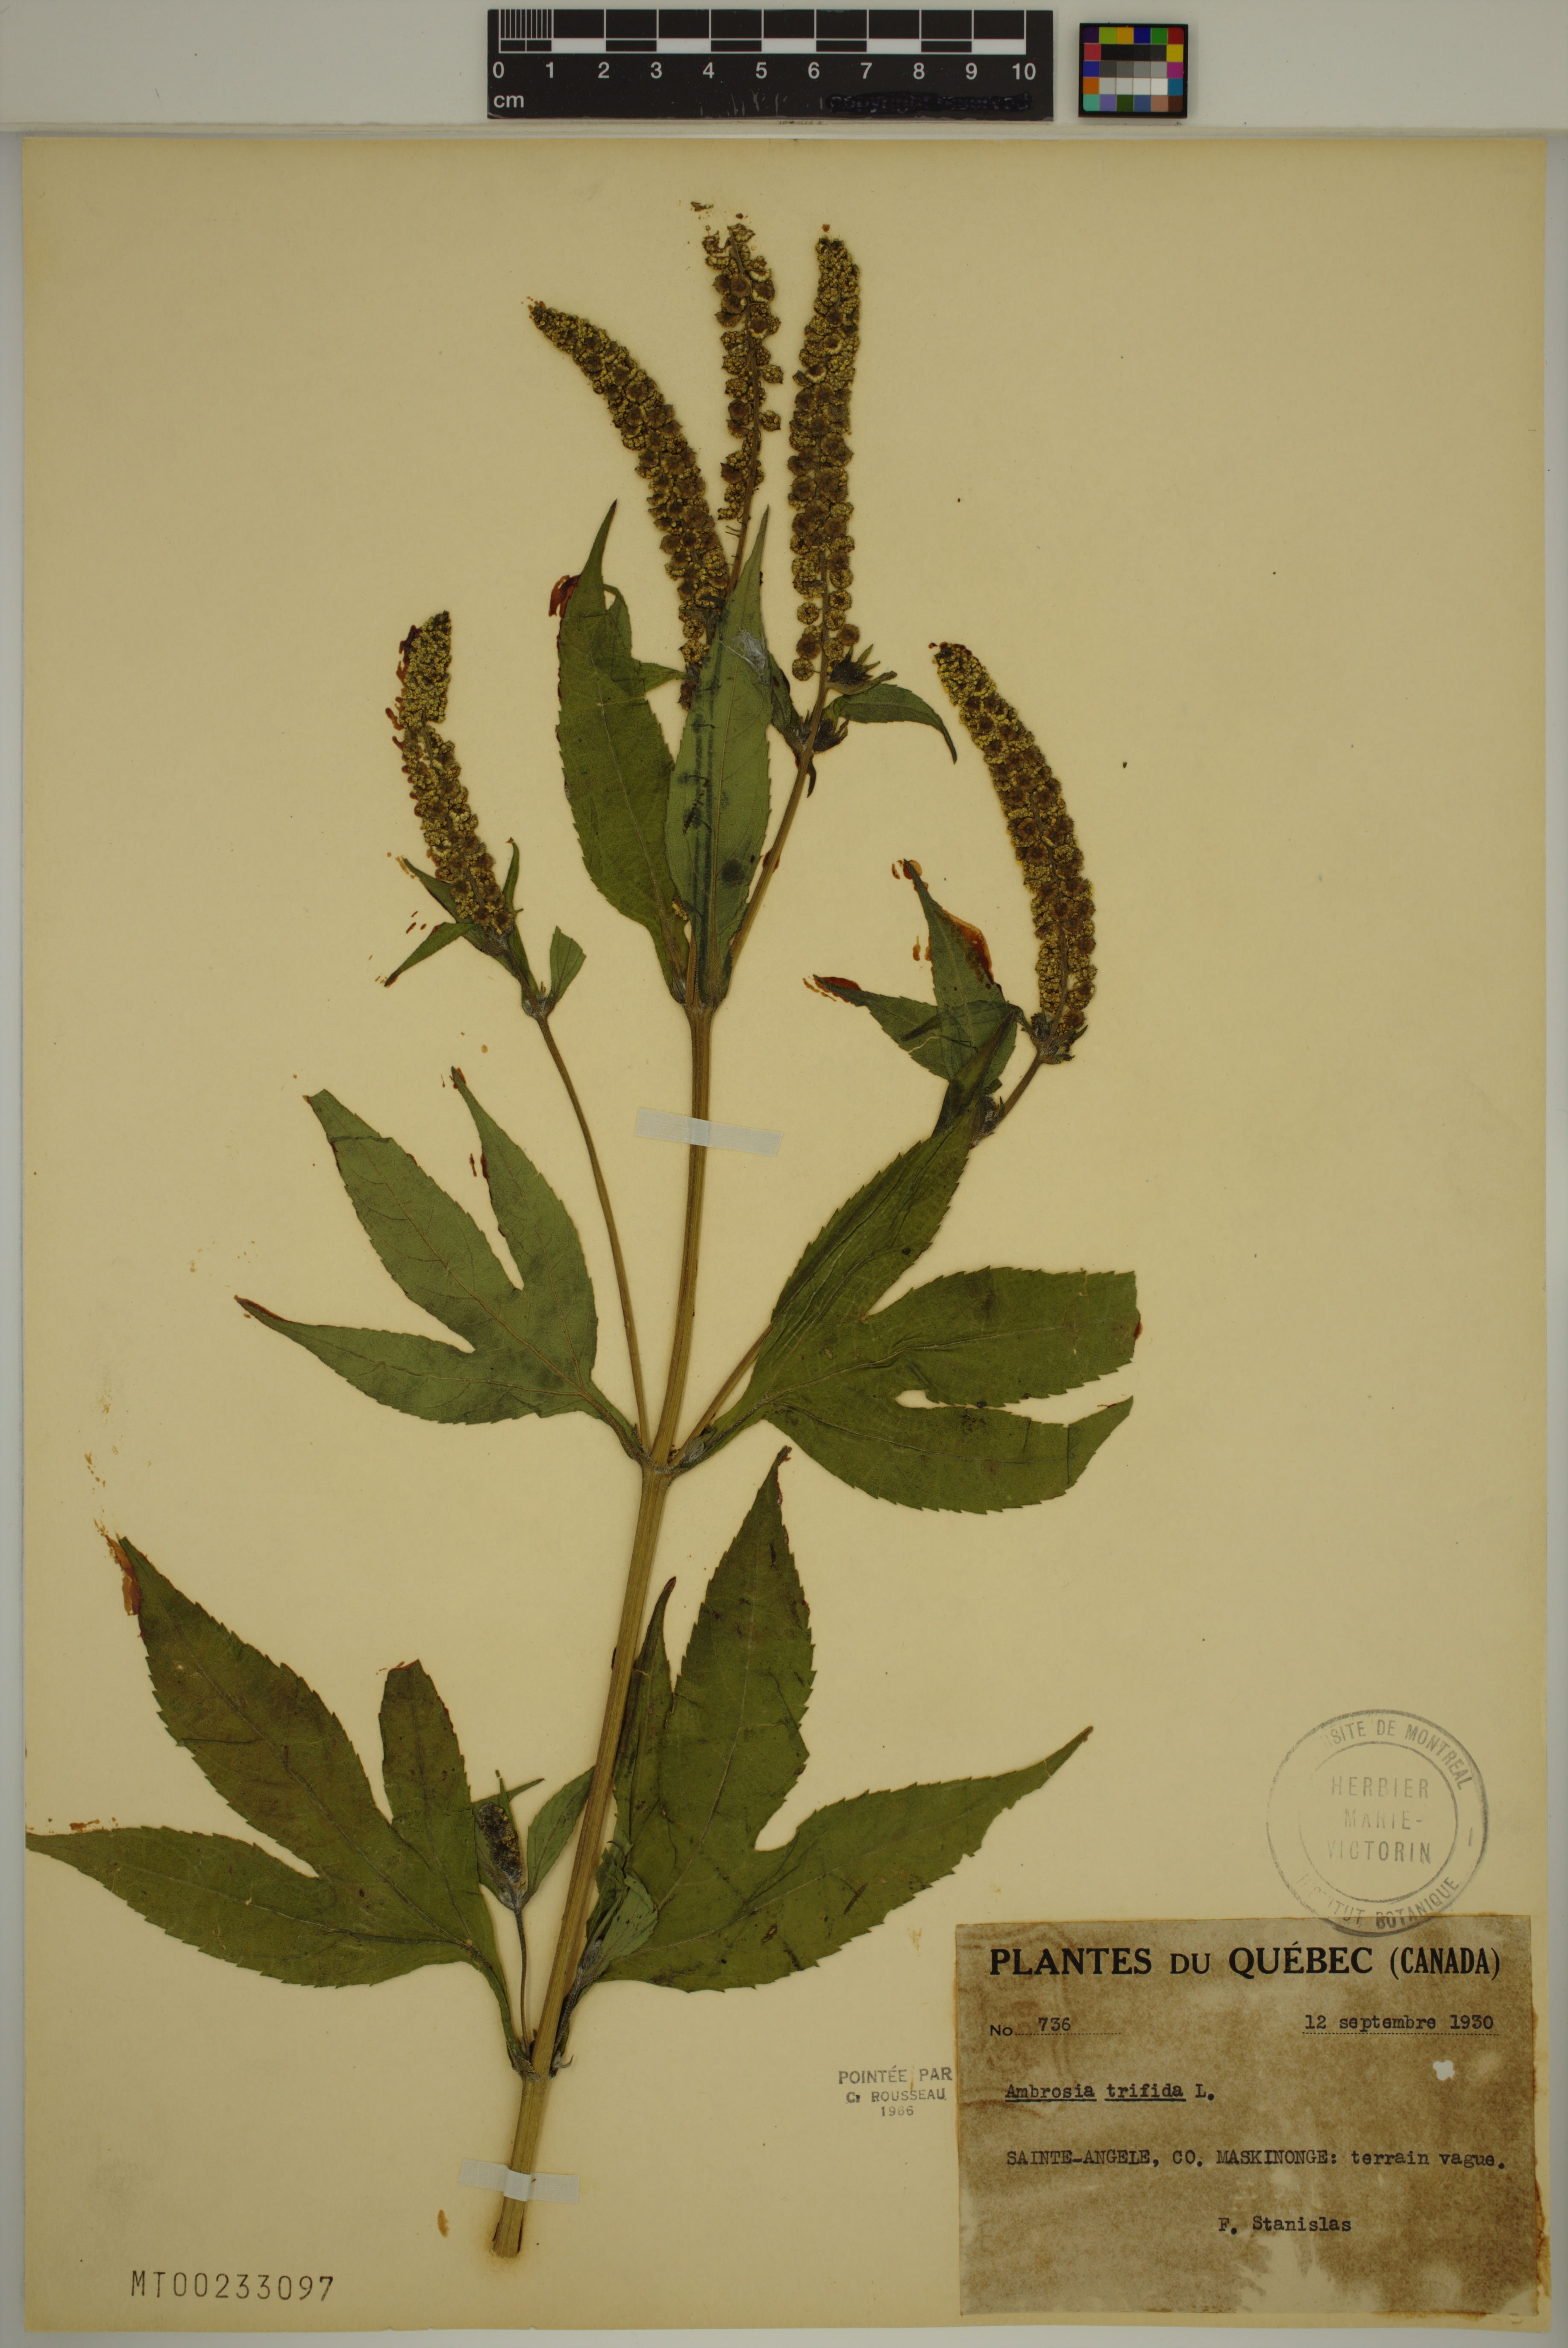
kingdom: Plantae
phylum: Tracheophyta
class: Magnoliopsida
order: Asterales
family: Asteraceae
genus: Ambrosia
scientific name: Ambrosia trifida
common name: Giant ragweed
